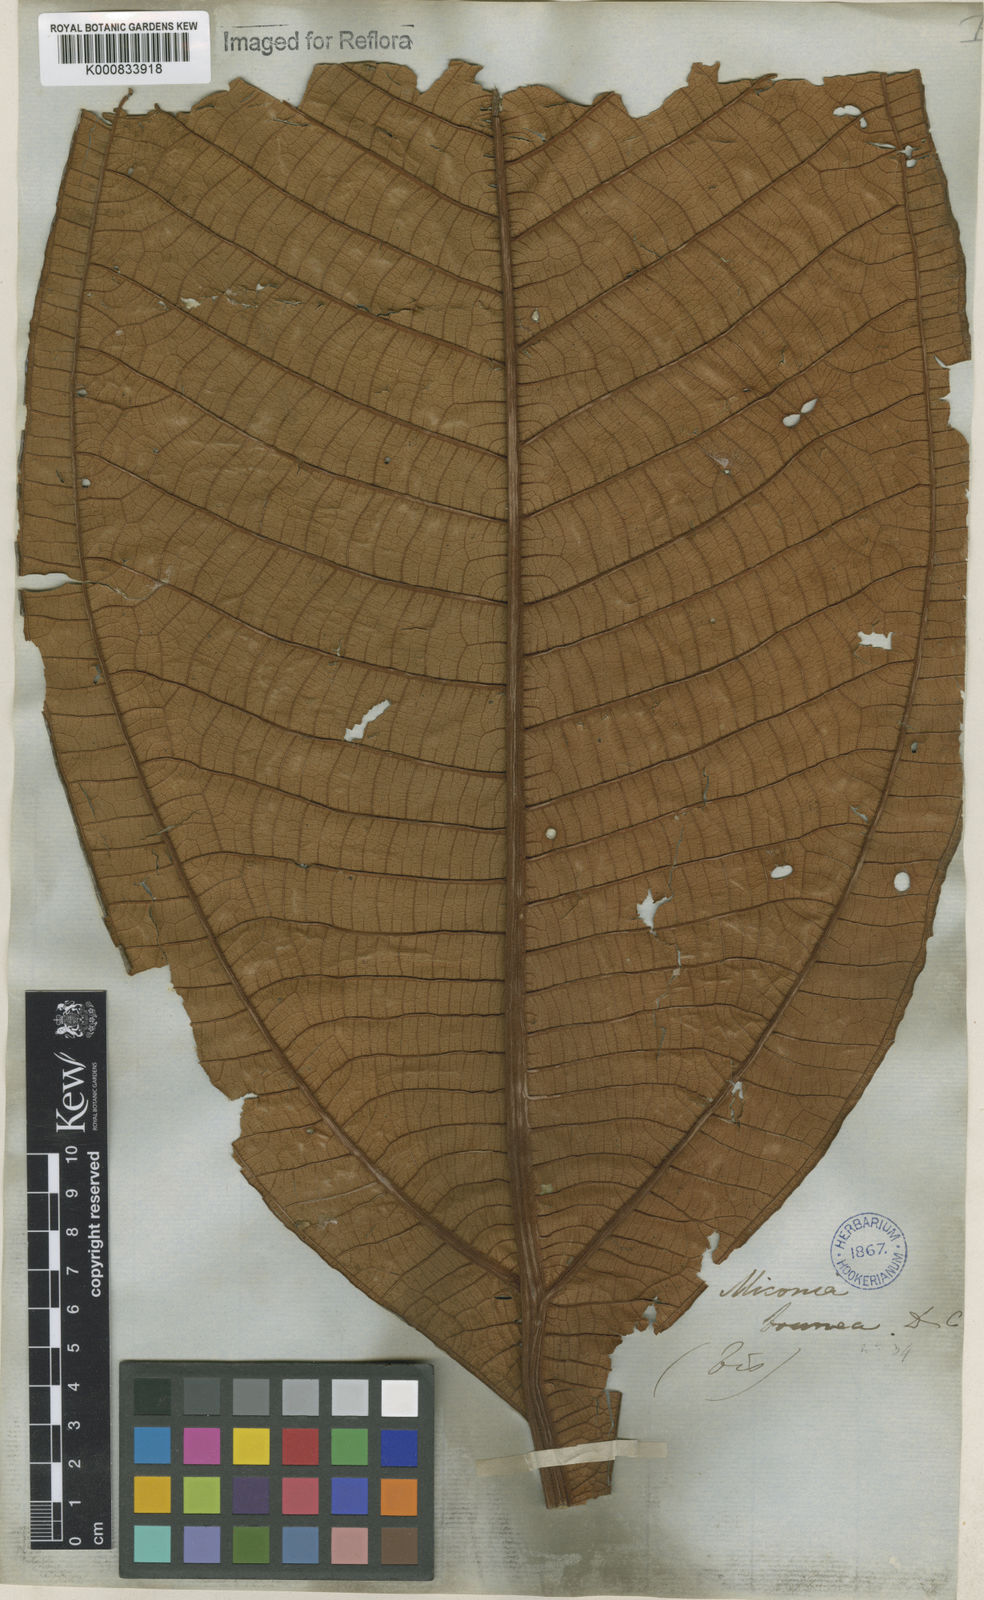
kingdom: Plantae
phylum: Tracheophyta
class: Magnoliopsida
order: Myrtales
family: Melastomataceae
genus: Miconia
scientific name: Miconia brunnea
